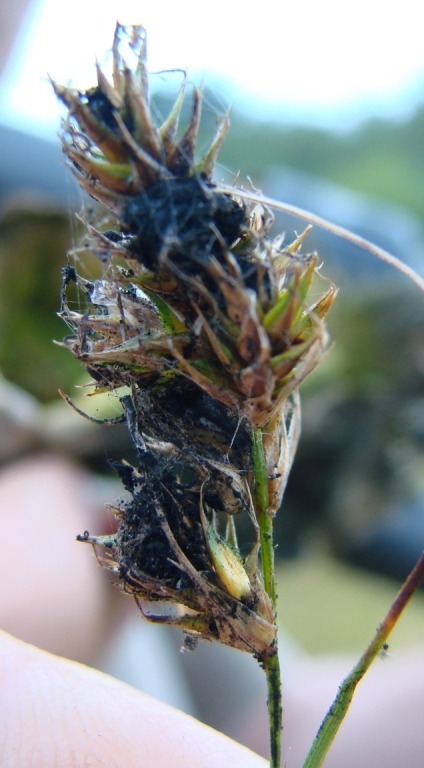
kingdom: Fungi
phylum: Basidiomycota
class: Ustilaginomycetes
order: Ustilaginales
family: Anthracoideaceae
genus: Anthracoidea
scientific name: Anthracoidea arenariae
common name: sandstar-brand
